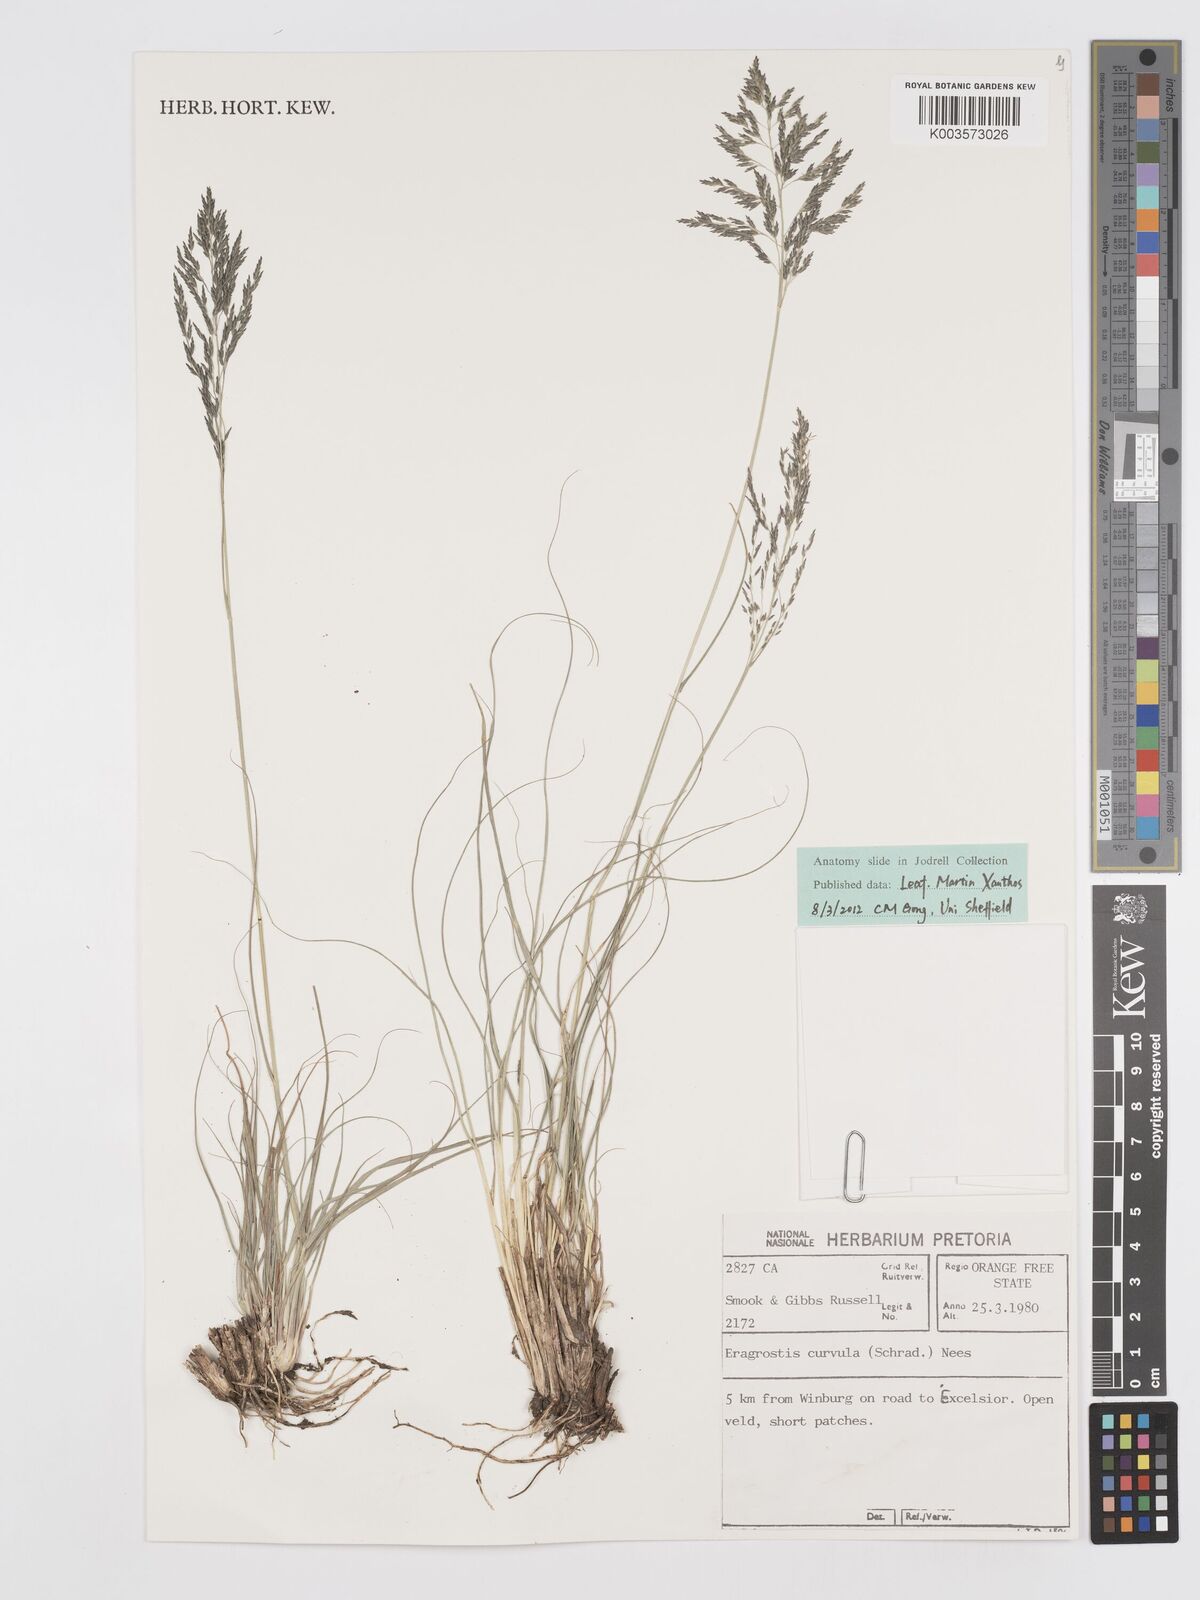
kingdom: Plantae
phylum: Tracheophyta
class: Liliopsida
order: Poales
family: Poaceae
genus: Eragrostis
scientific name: Eragrostis curvula
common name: African love-grass
